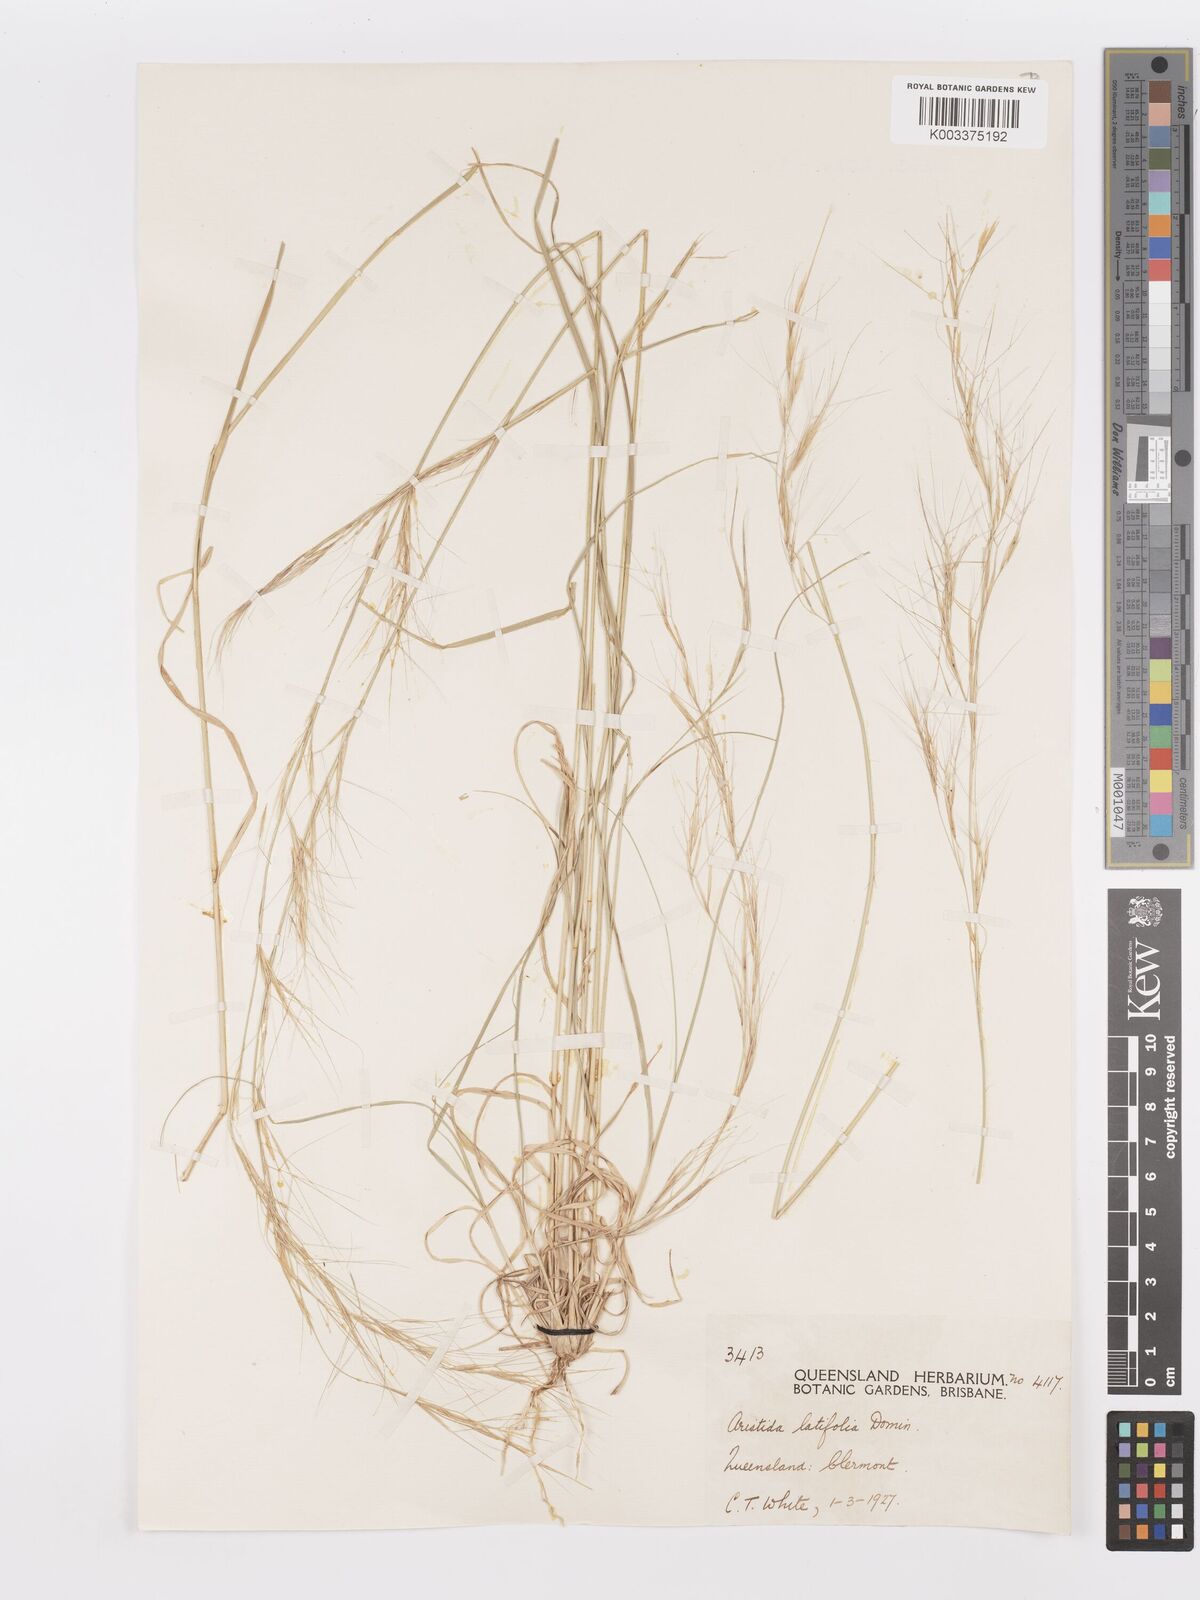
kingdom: Plantae
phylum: Tracheophyta
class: Liliopsida
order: Poales
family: Poaceae
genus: Aristida
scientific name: Aristida latifolia
